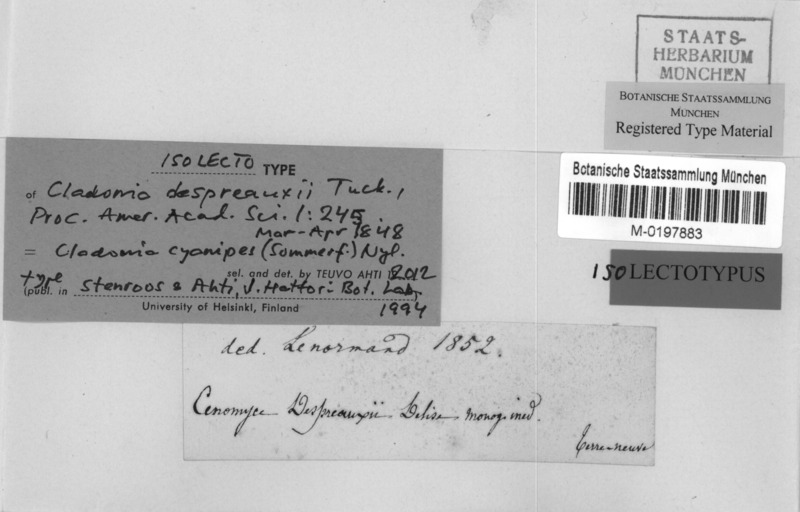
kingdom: Fungi
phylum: Ascomycota
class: Lecanoromycetes
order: Lecanorales
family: Cladoniaceae
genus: Cladonia
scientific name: Cladonia cyanipes
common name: Blue-footed pixie lichen
